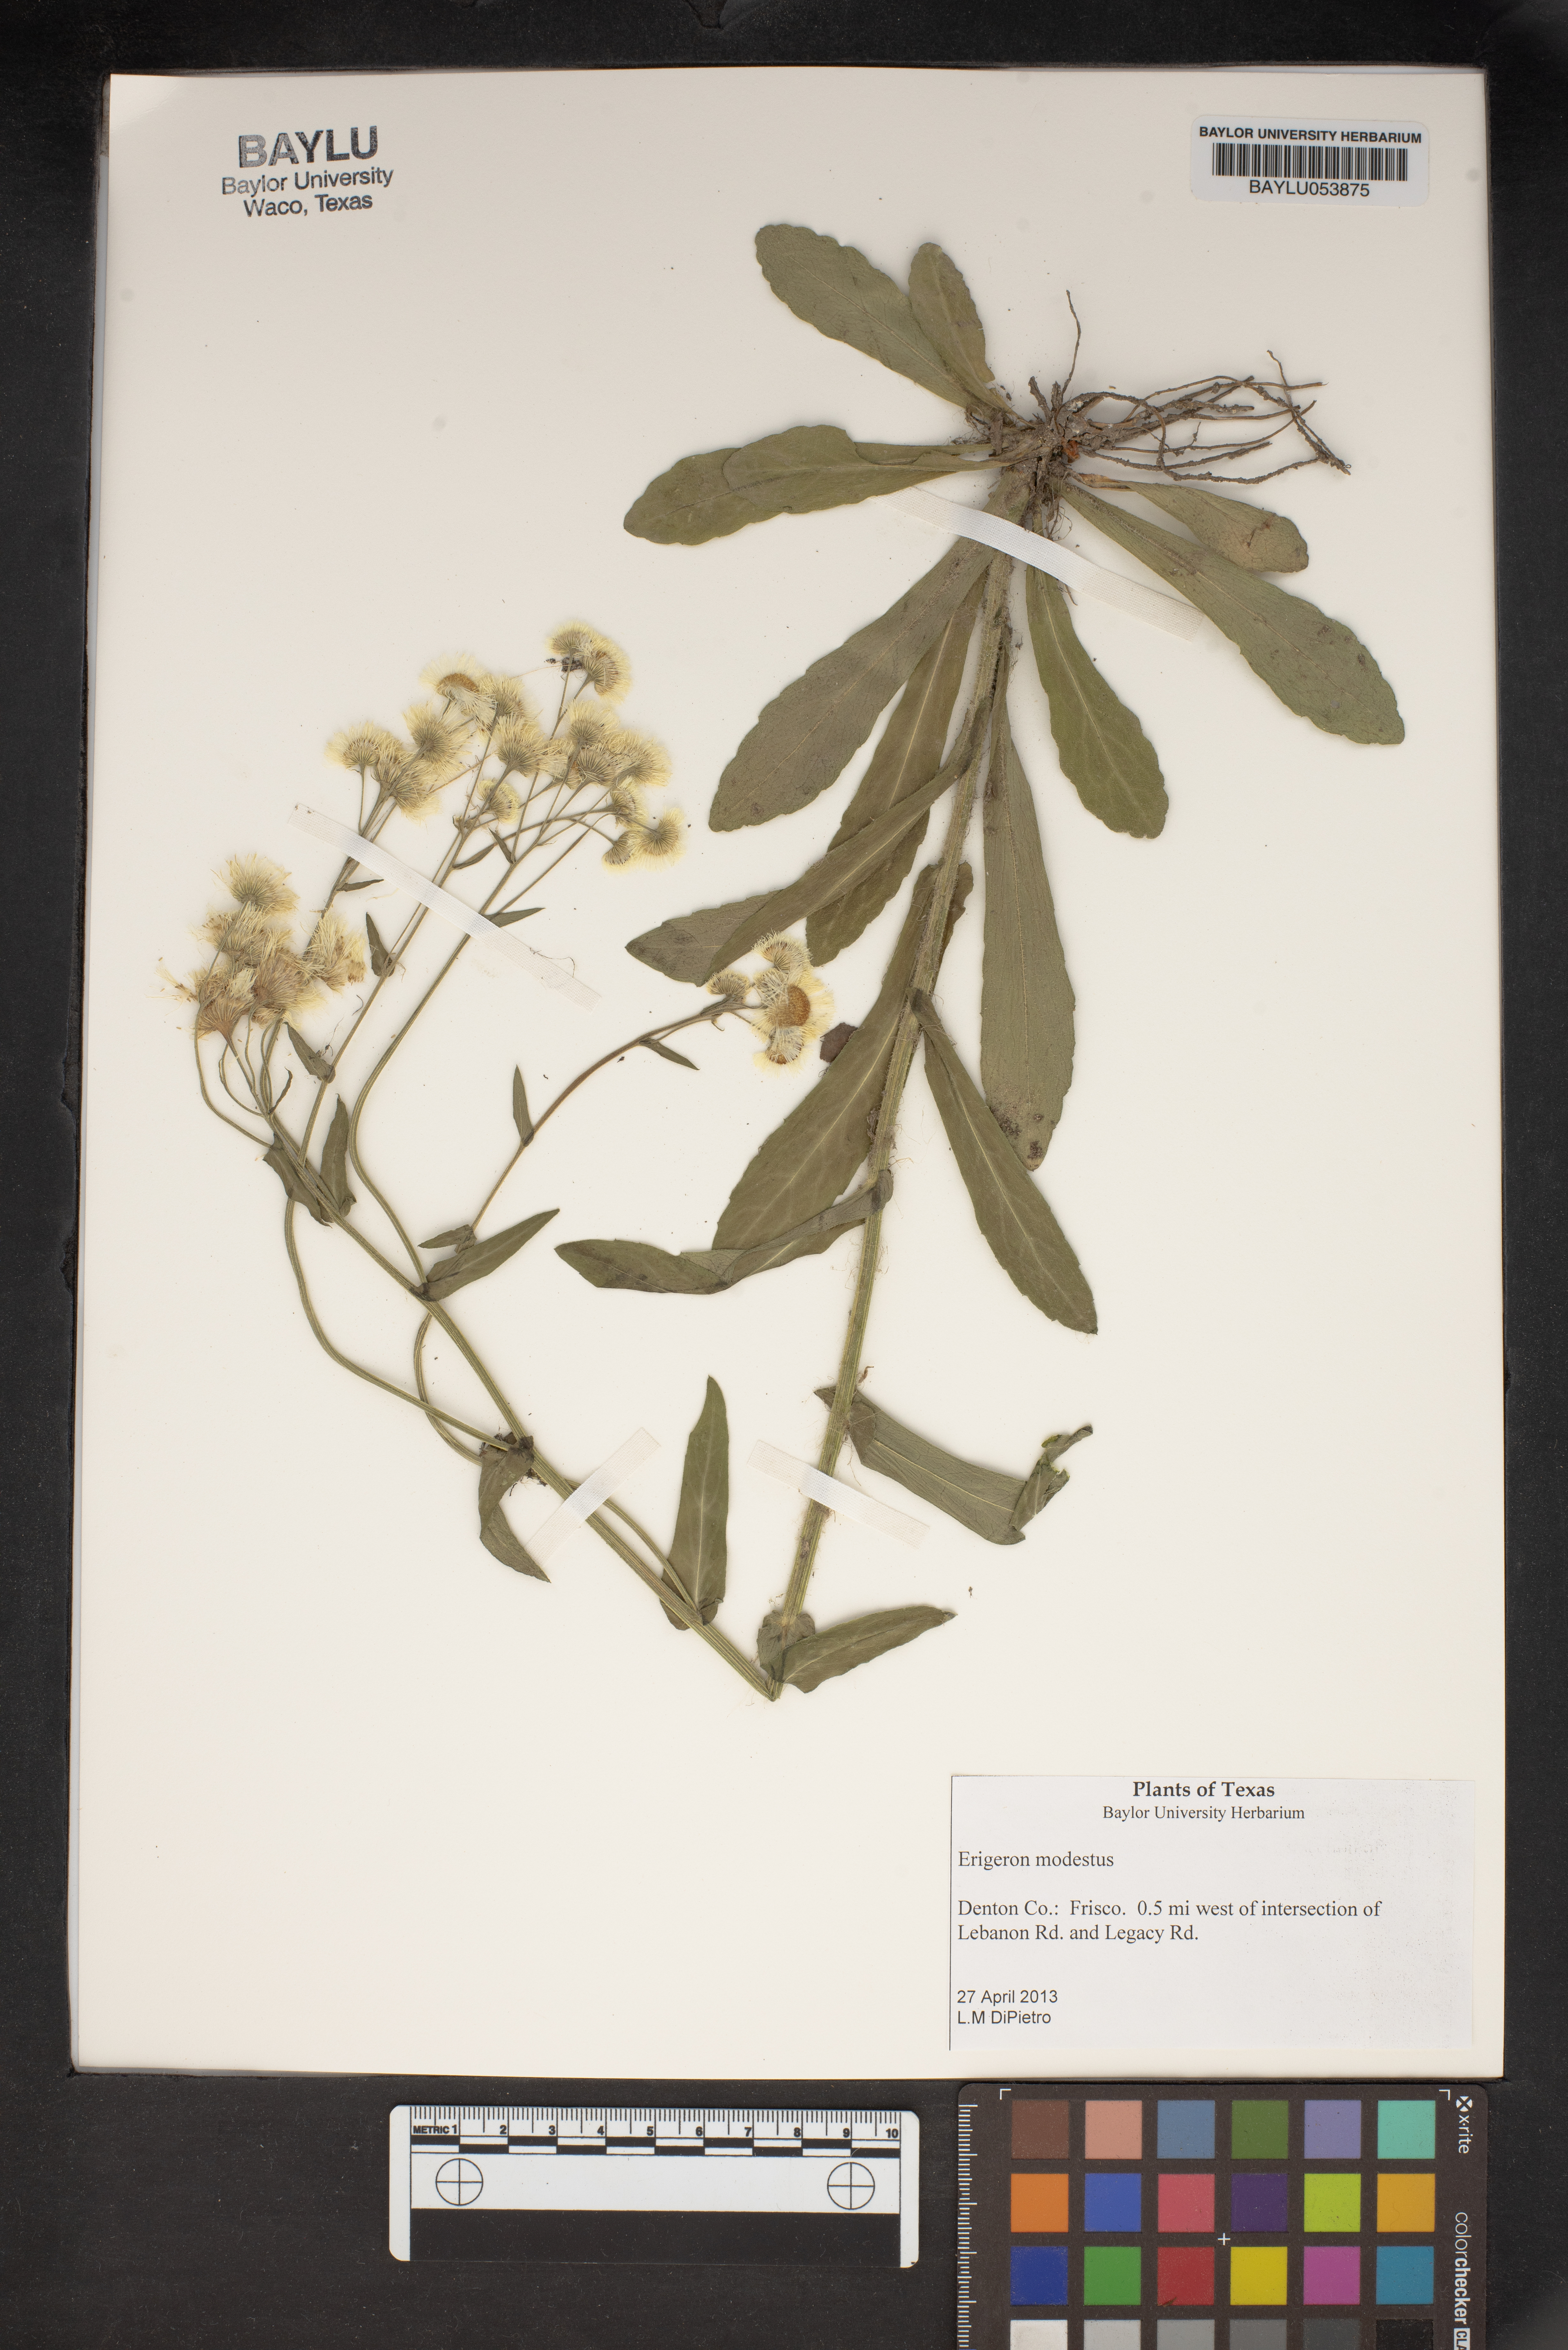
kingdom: Plantae
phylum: Tracheophyta
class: Magnoliopsida
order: Asterales
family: Asteraceae
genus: Erigeron
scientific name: Erigeron modestus
